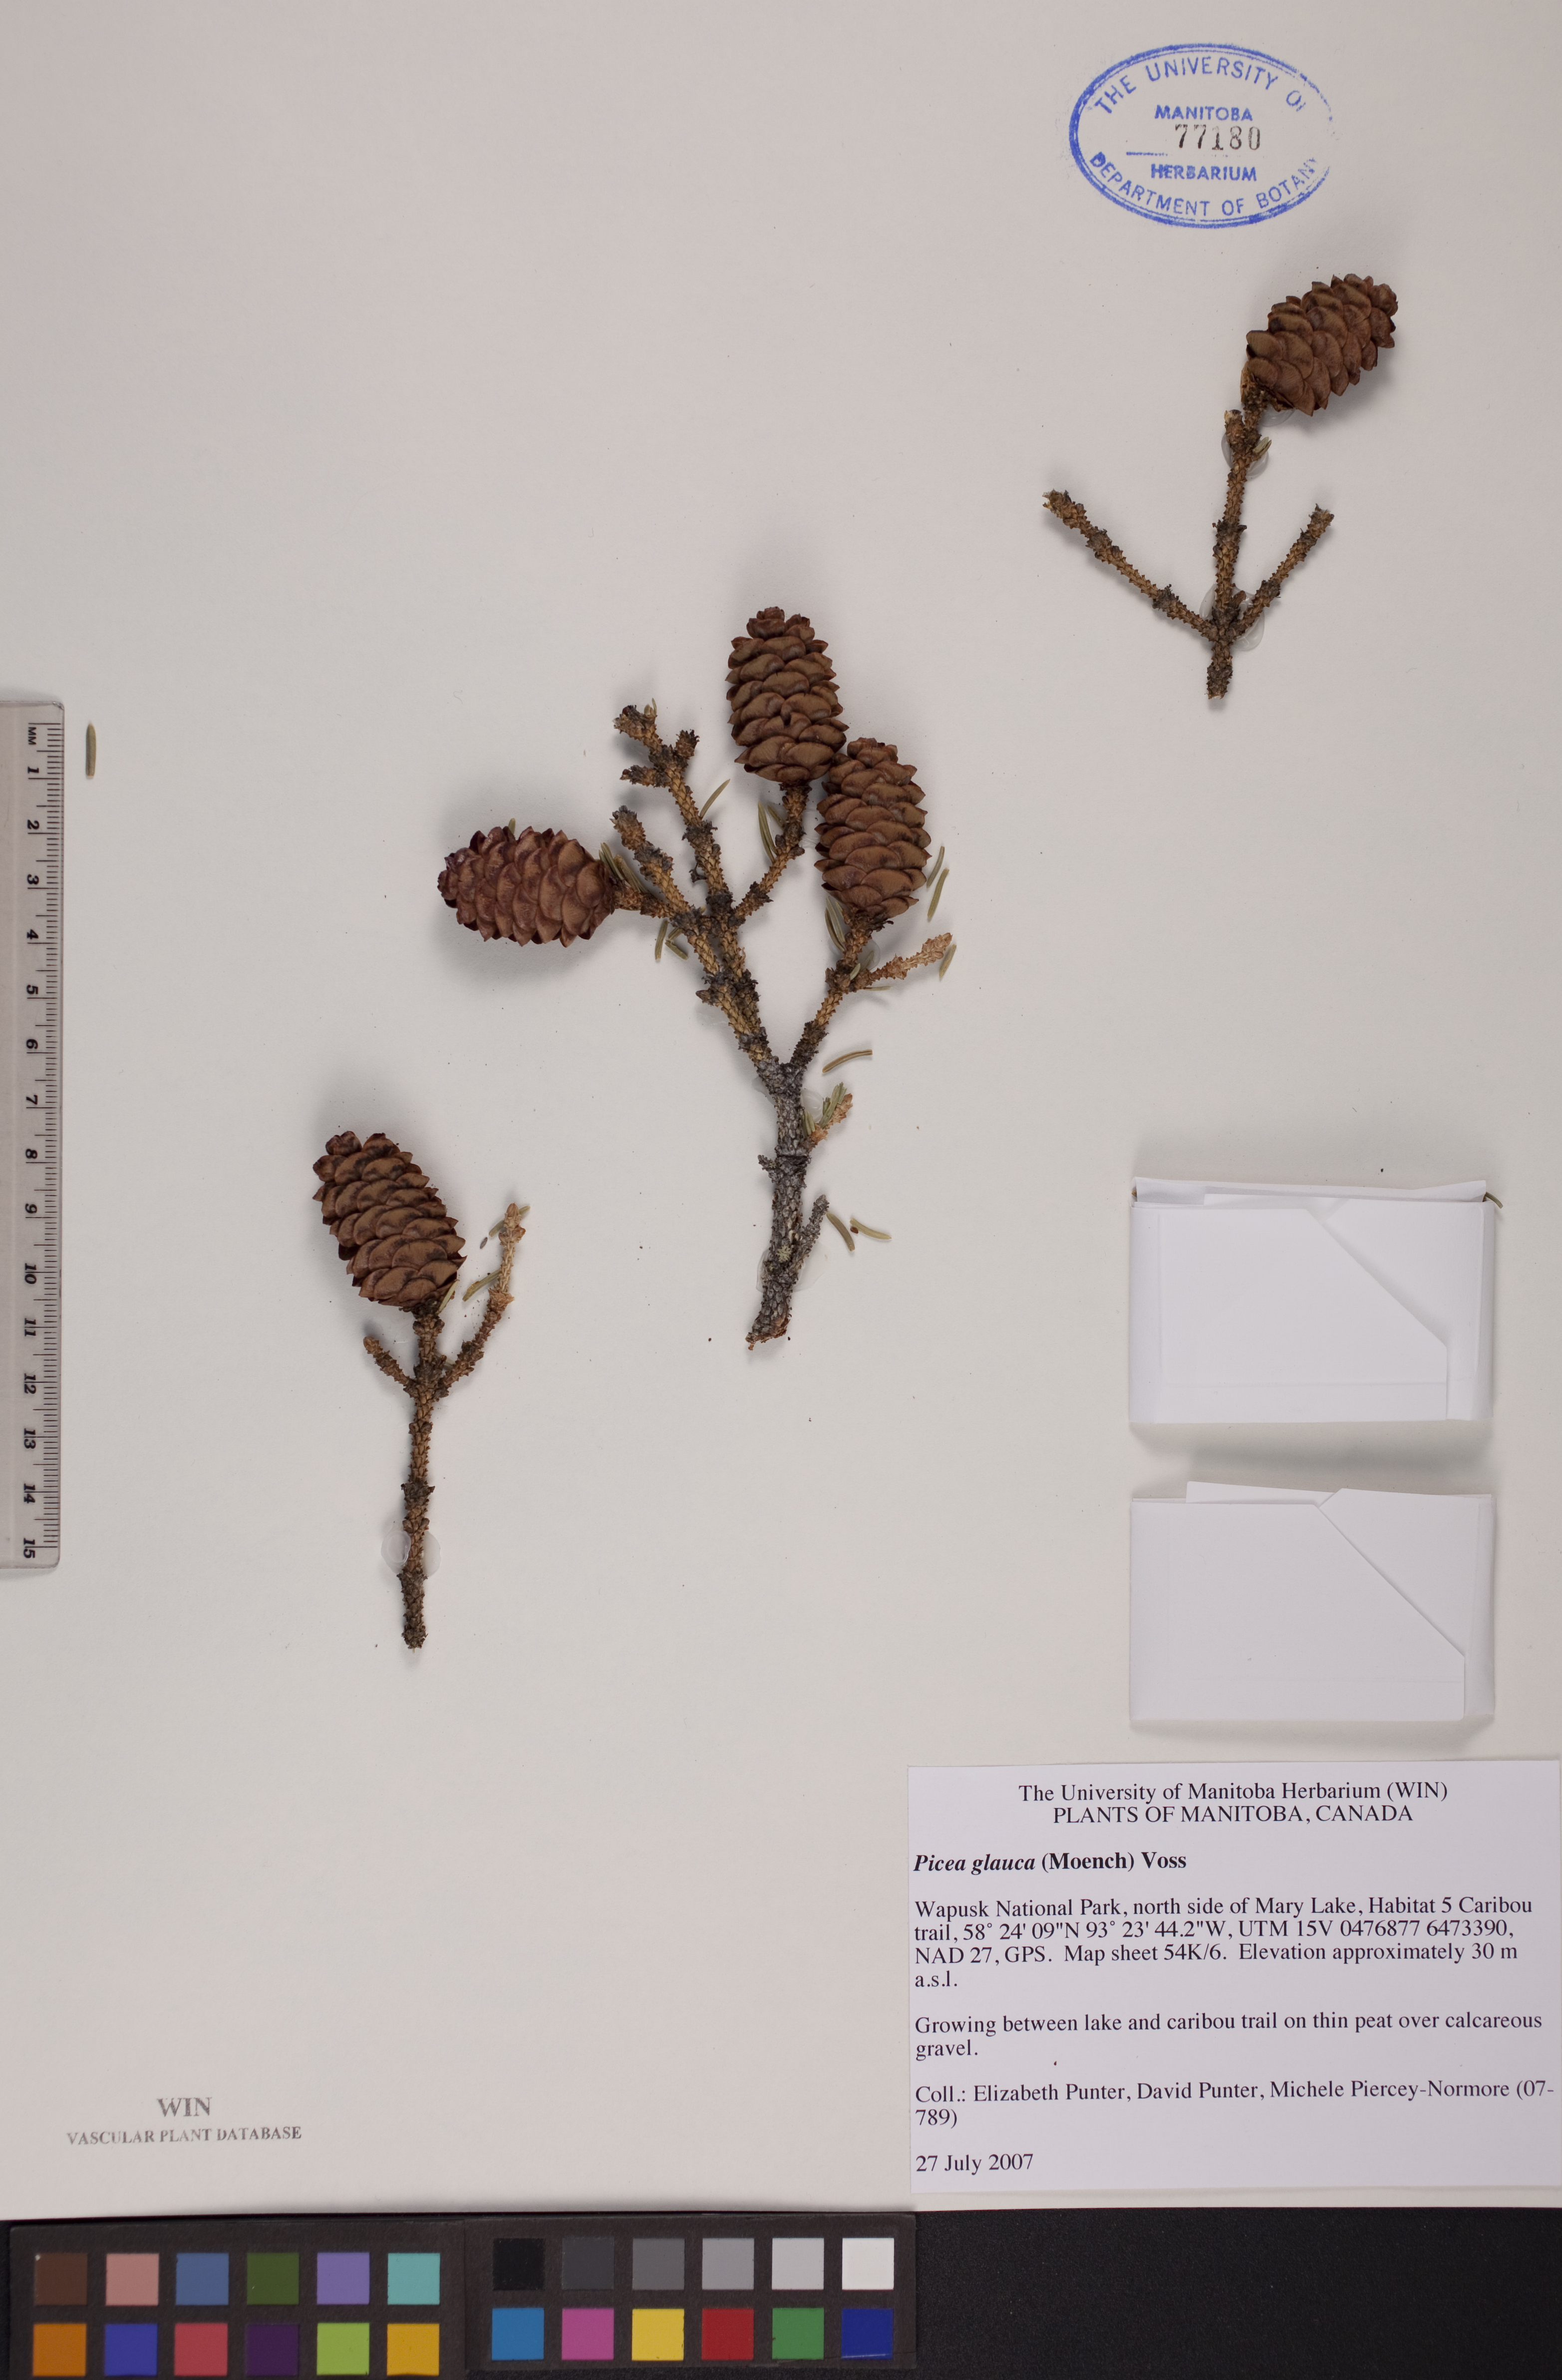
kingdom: Plantae
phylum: Tracheophyta
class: Pinopsida
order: Pinales
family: Pinaceae
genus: Picea
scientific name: Picea glauca
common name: White spruce
